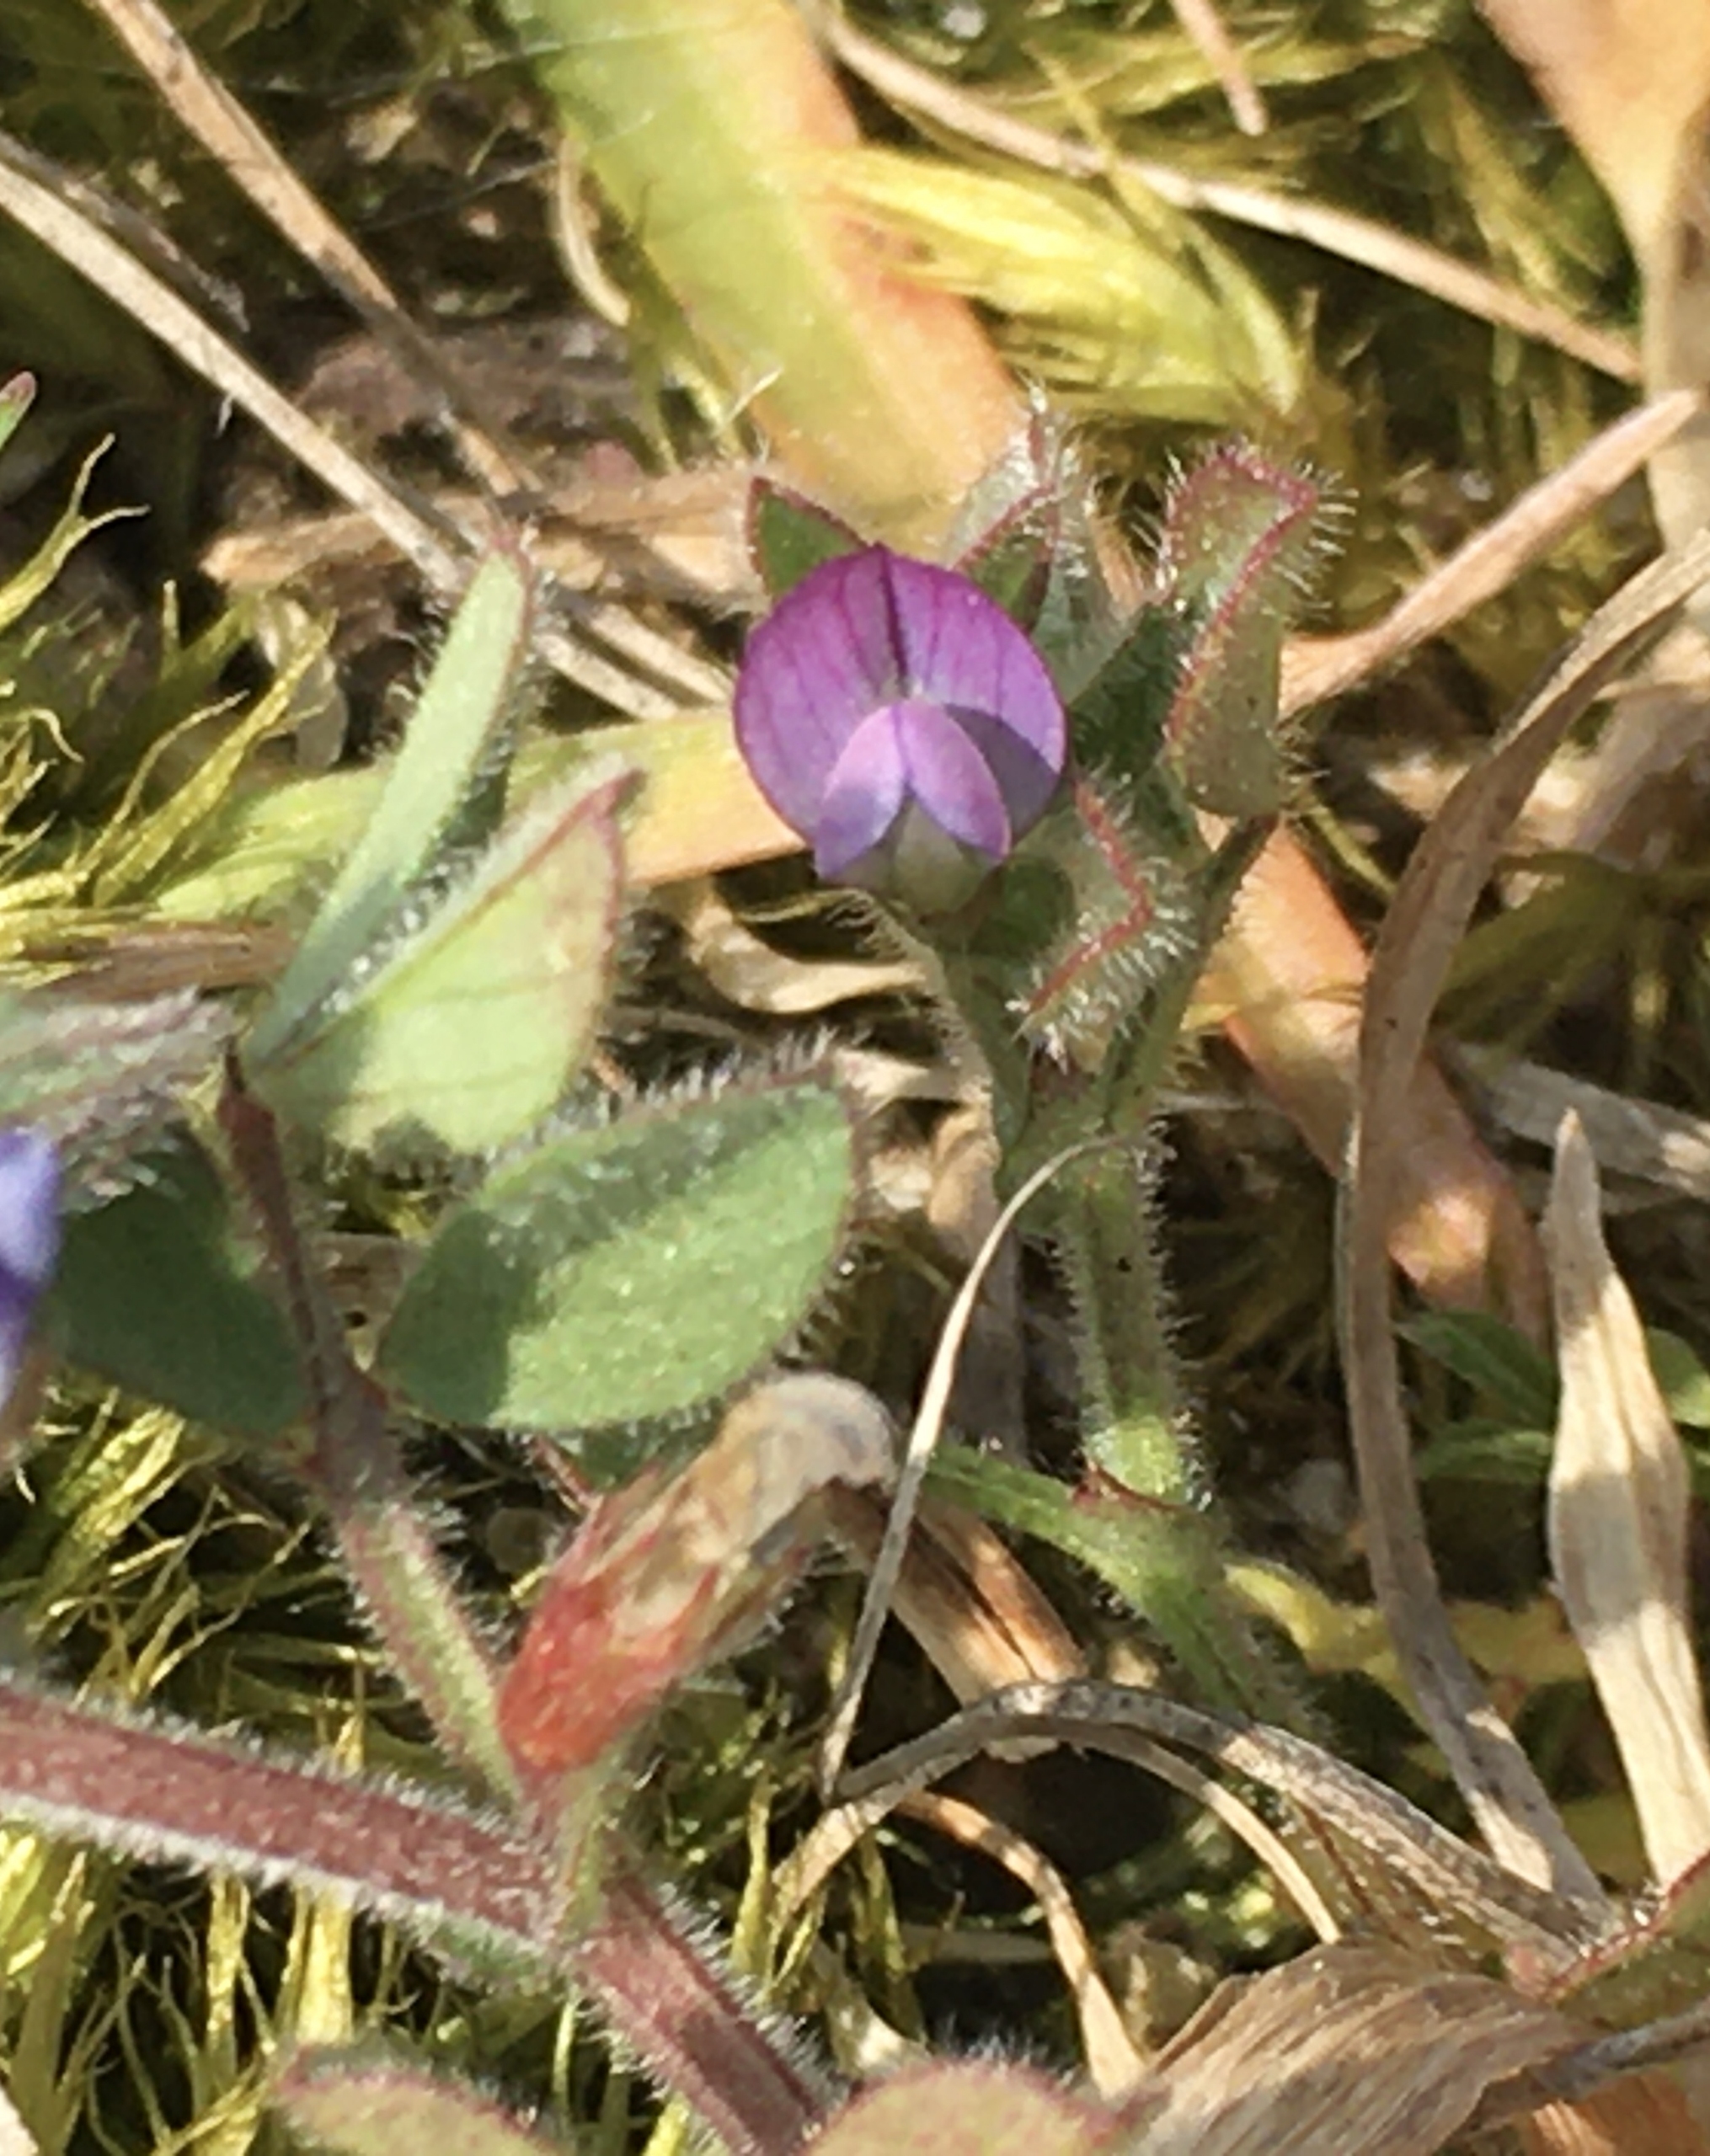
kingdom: Plantae
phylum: Tracheophyta
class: Magnoliopsida
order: Fabales
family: Fabaceae
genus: Vicia
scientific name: Vicia lathyroides
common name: Vår-vikke
